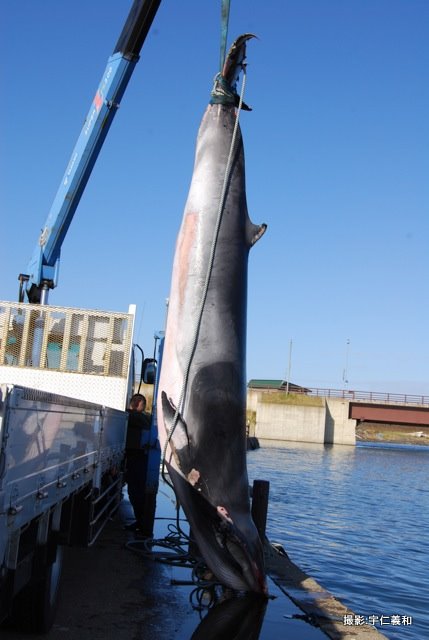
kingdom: Animalia
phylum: Chordata
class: Mammalia
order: Cetacea
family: Balaenopteridae
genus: Balaenoptera
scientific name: Balaenoptera acutorostrata
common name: Minke whale
